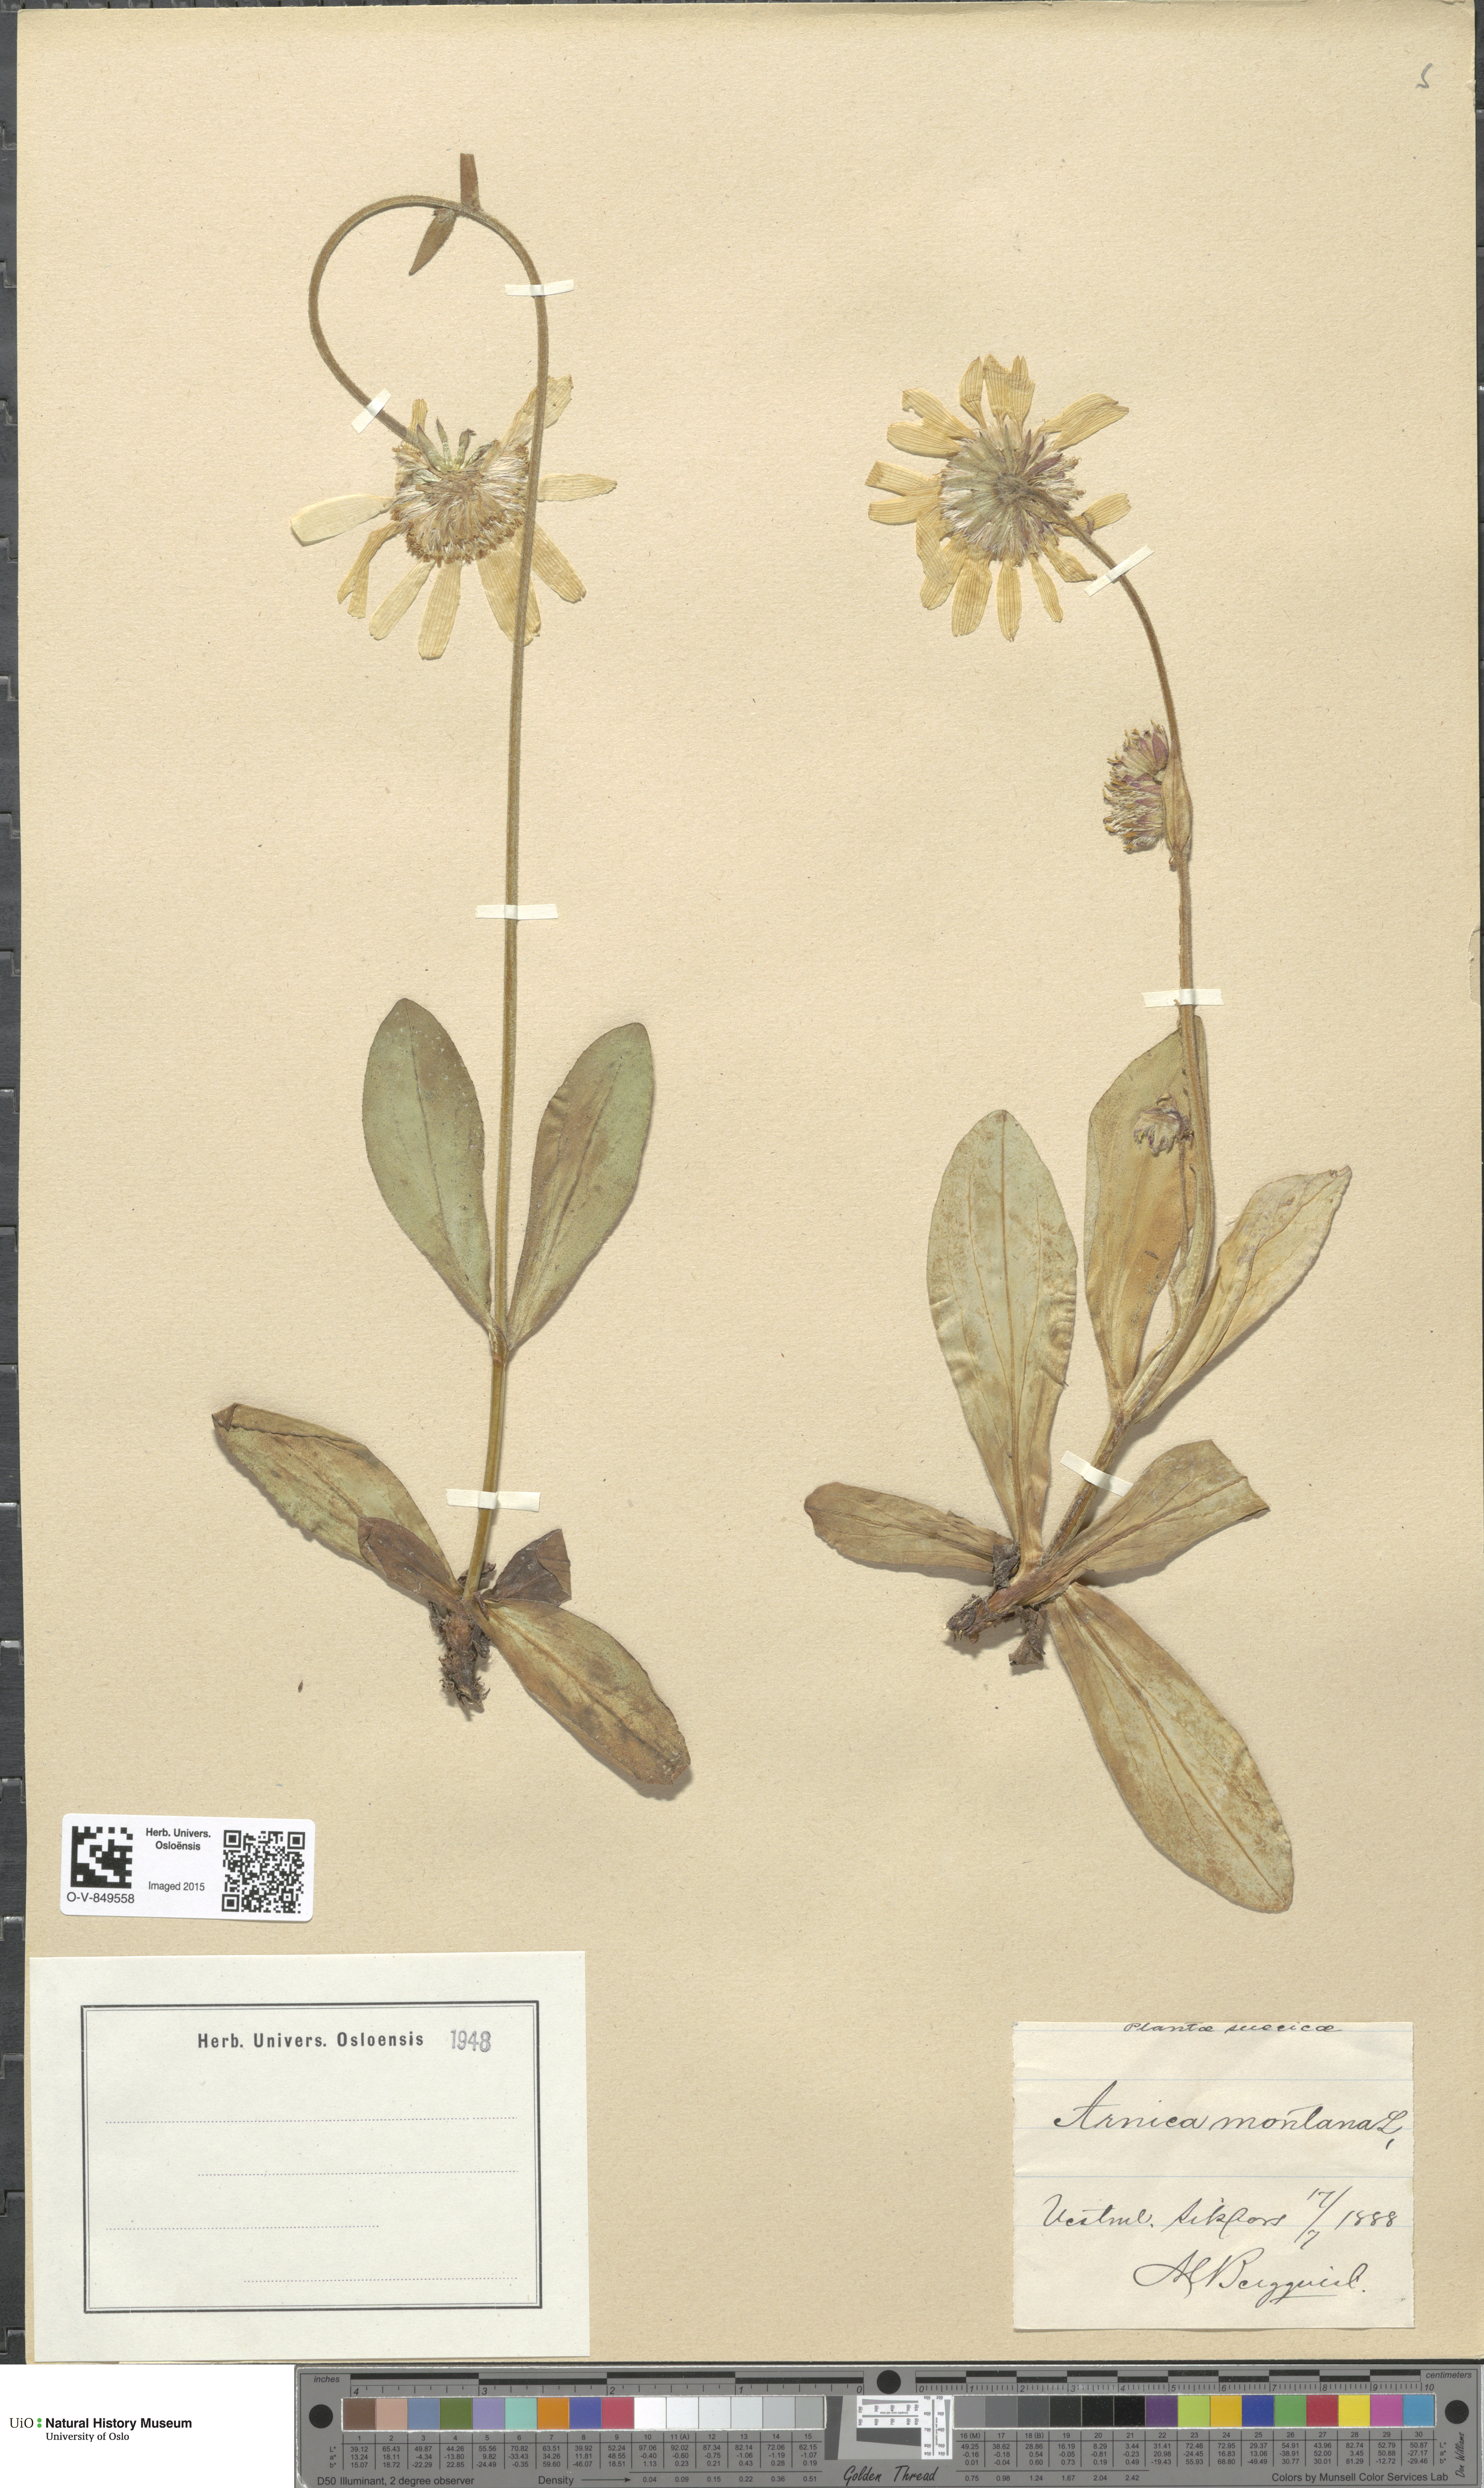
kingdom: Plantae
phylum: Tracheophyta
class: Magnoliopsida
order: Asterales
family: Asteraceae
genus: Arnica
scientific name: Arnica montana
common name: Leopard's bane
